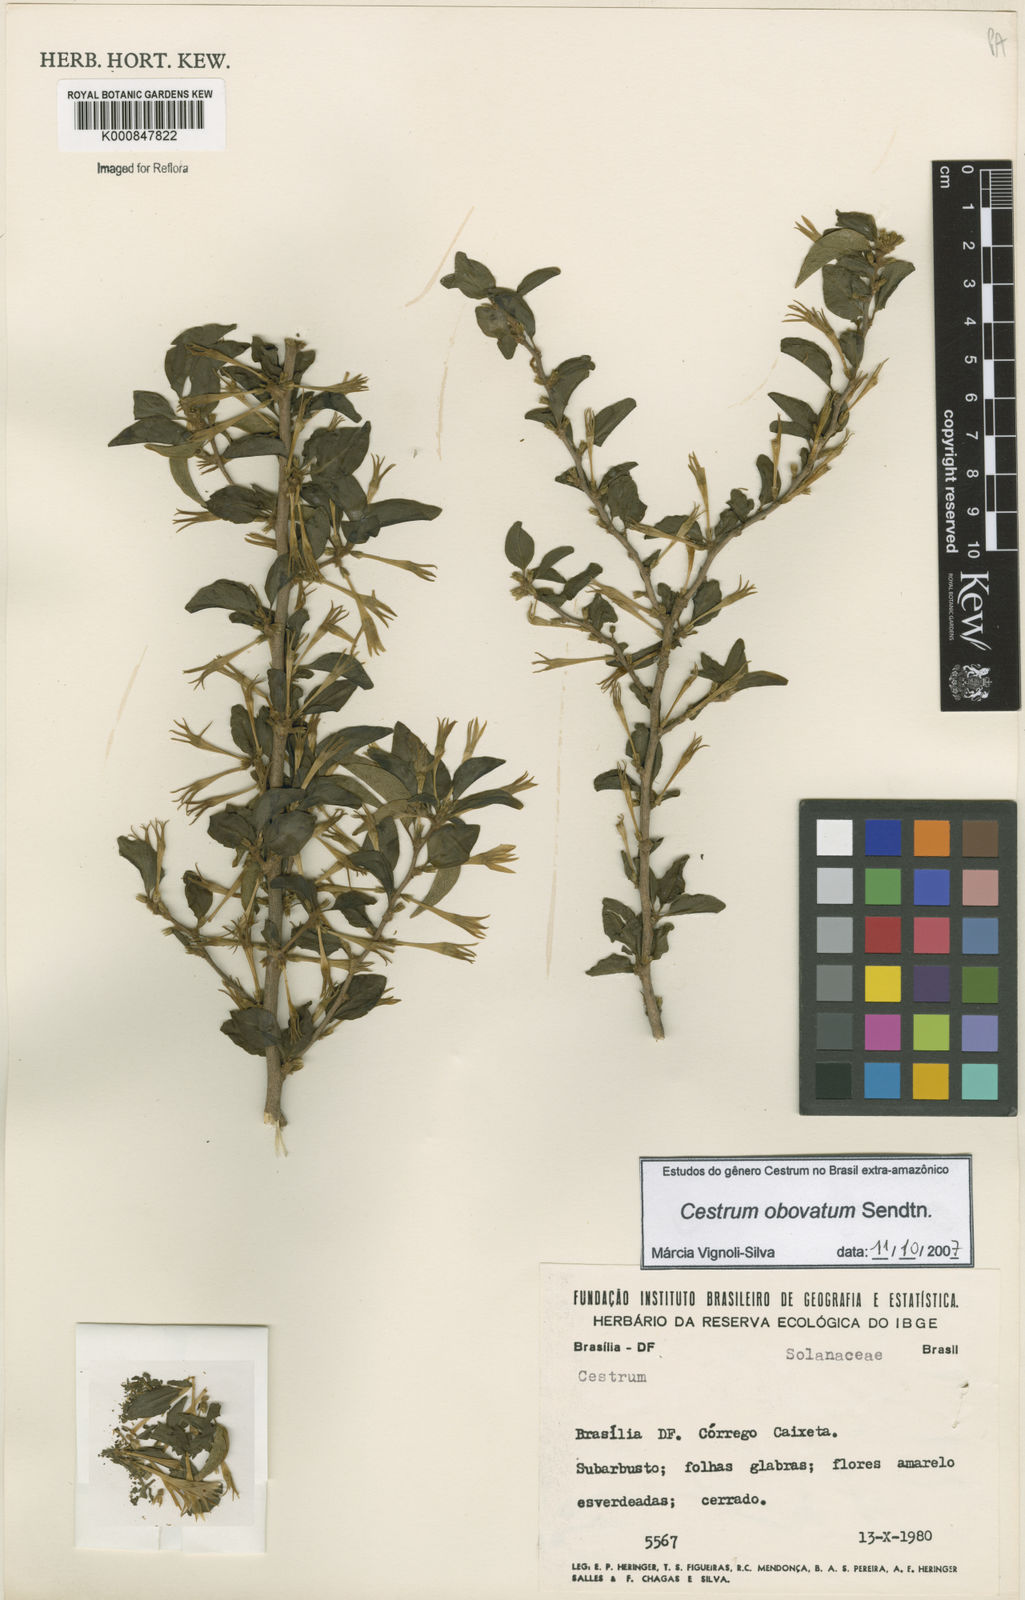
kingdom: Plantae
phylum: Tracheophyta
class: Magnoliopsida
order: Solanales
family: Solanaceae
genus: Cestrum
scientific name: Cestrum obovatum
